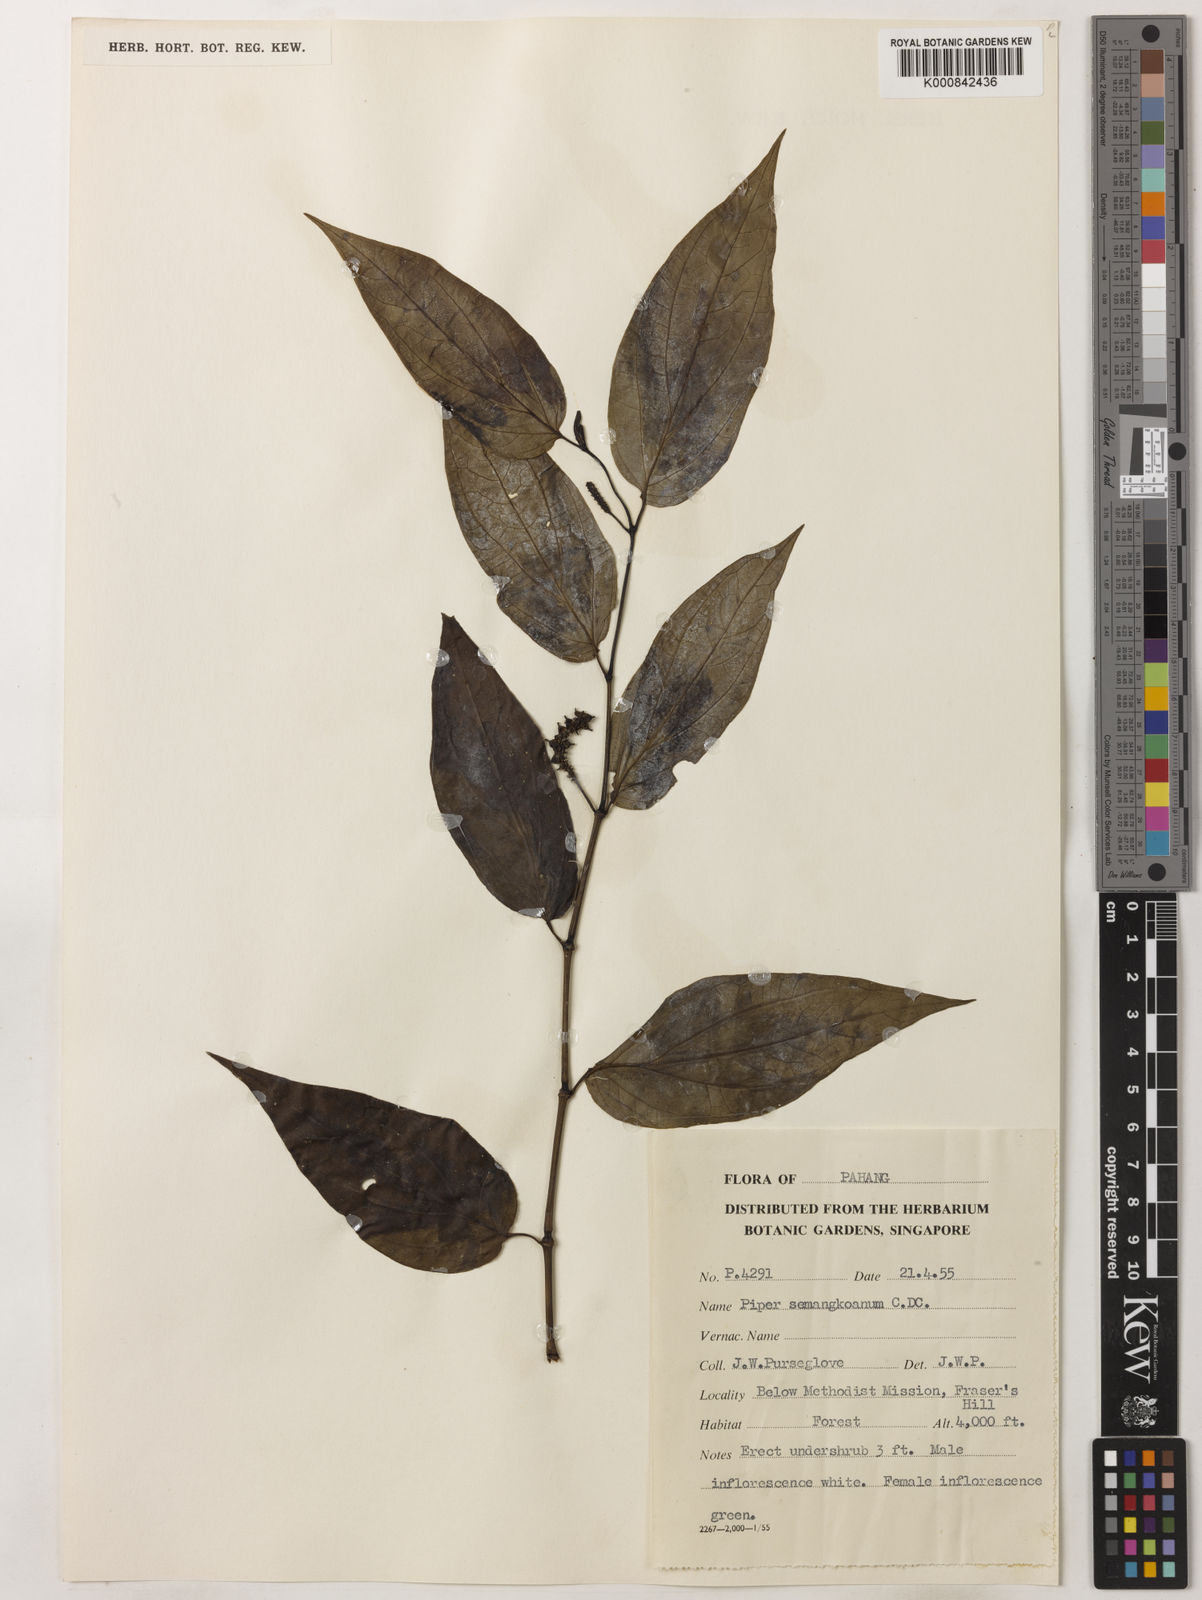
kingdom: Plantae
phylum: Tracheophyta
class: Magnoliopsida
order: Piperales
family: Piperaceae
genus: Piper
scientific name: Piper semangkoanum
